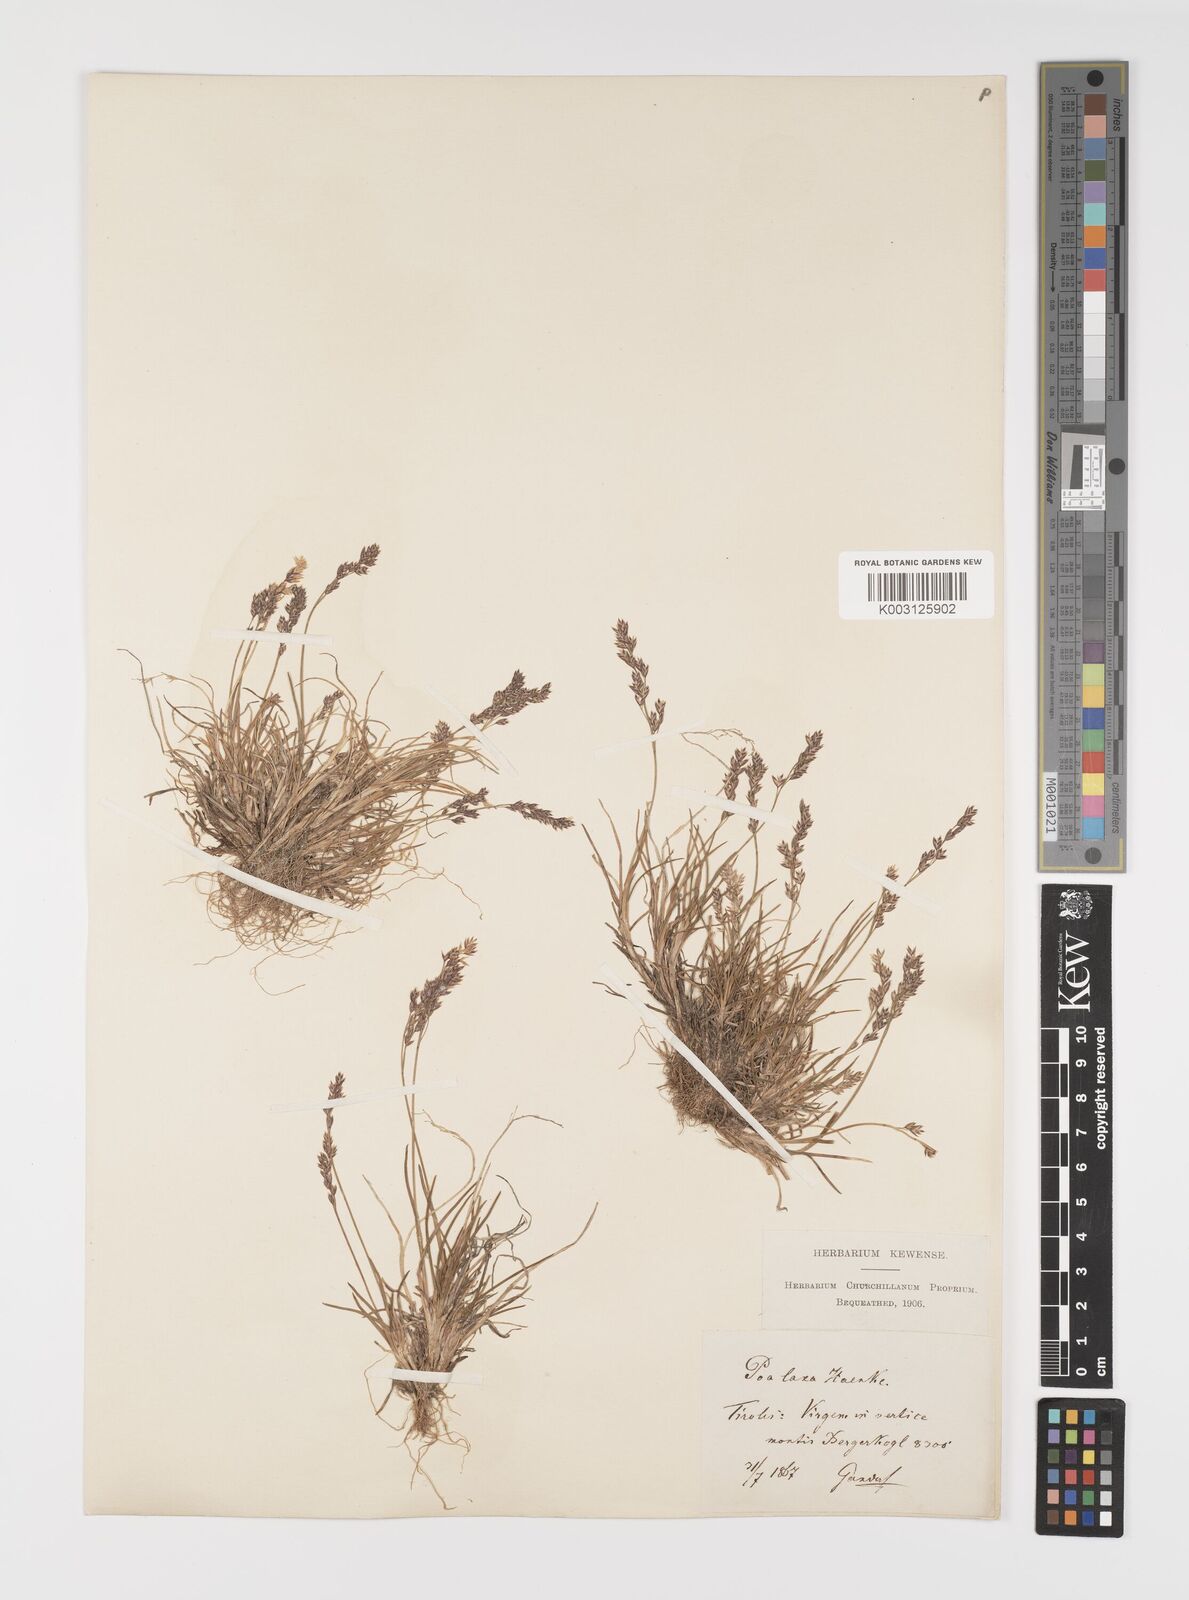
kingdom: Plantae
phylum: Tracheophyta
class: Liliopsida
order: Poales
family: Poaceae
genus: Poa
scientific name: Poa laxa
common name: Lax bluegrass
